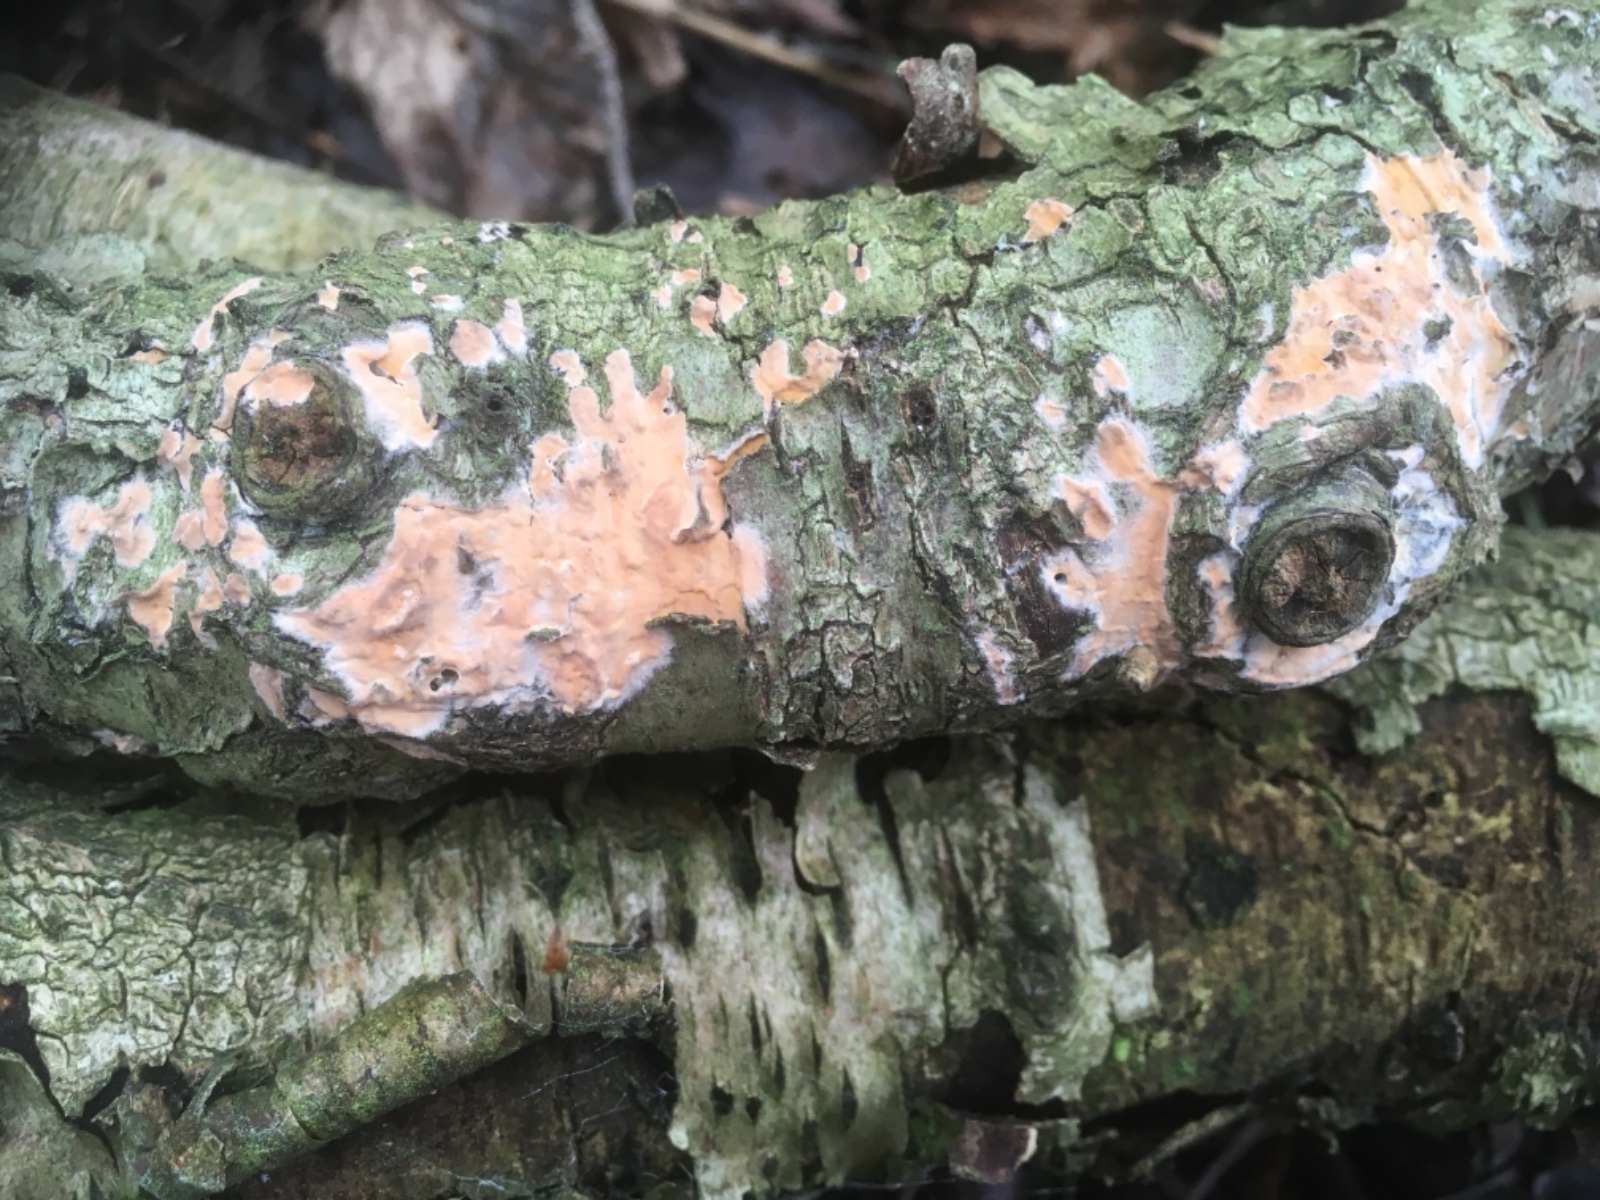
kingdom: Fungi
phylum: Basidiomycota
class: Agaricomycetes
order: Russulales
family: Peniophoraceae
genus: Peniophora
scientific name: Peniophora incarnata
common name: laksefarvet voksskind
